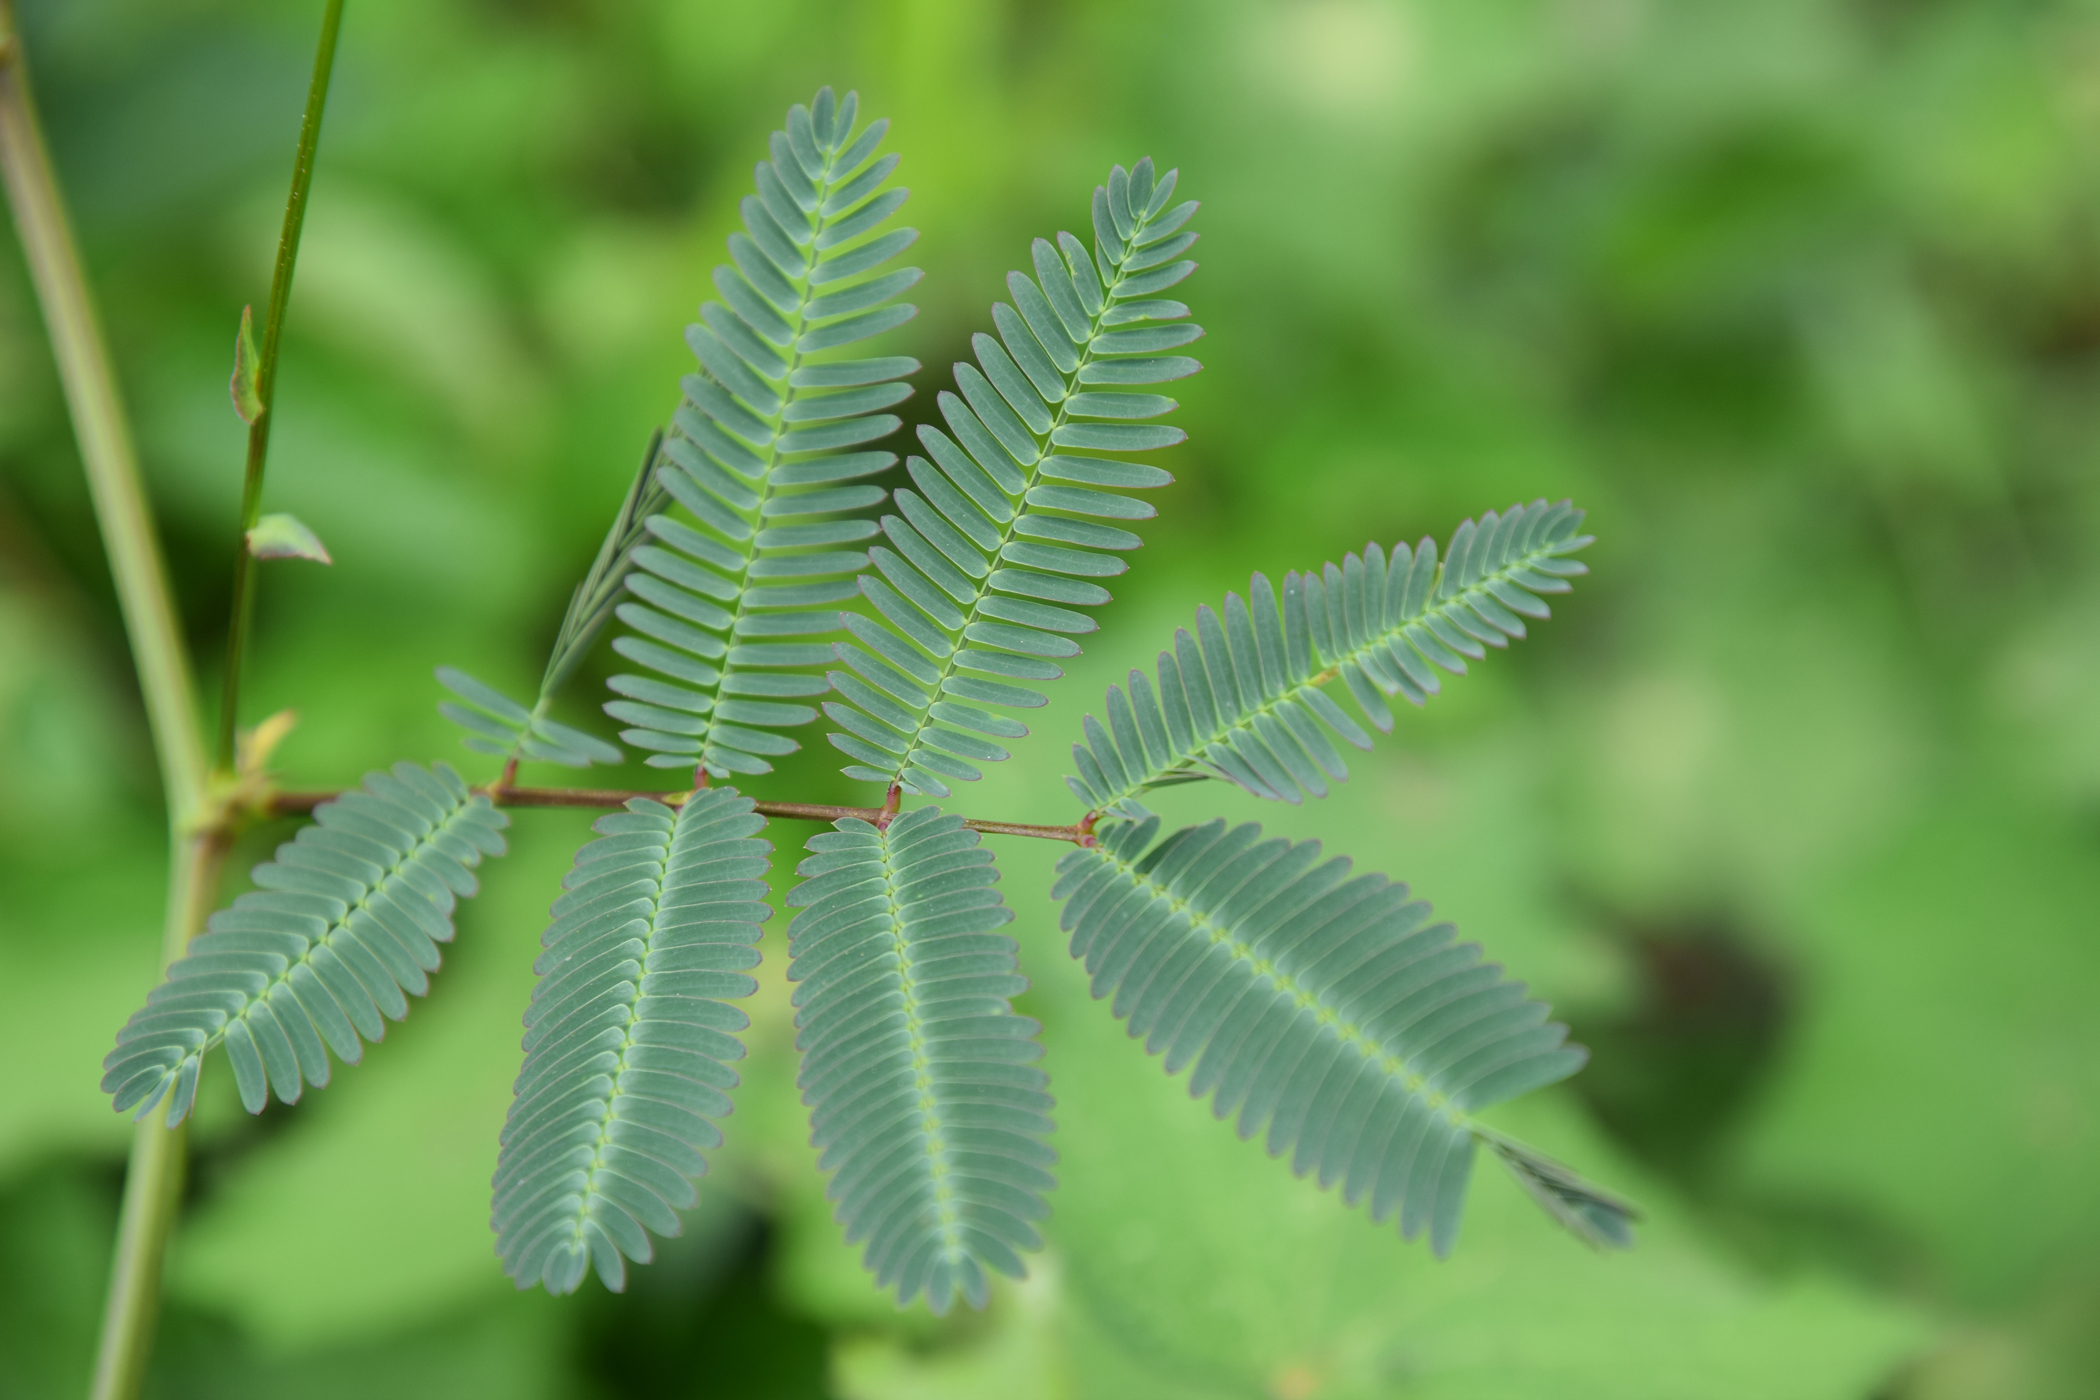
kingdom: Plantae
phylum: Tracheophyta
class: Magnoliopsida
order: Fabales
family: Fabaceae
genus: Neptunia
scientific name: Neptunia javanica
